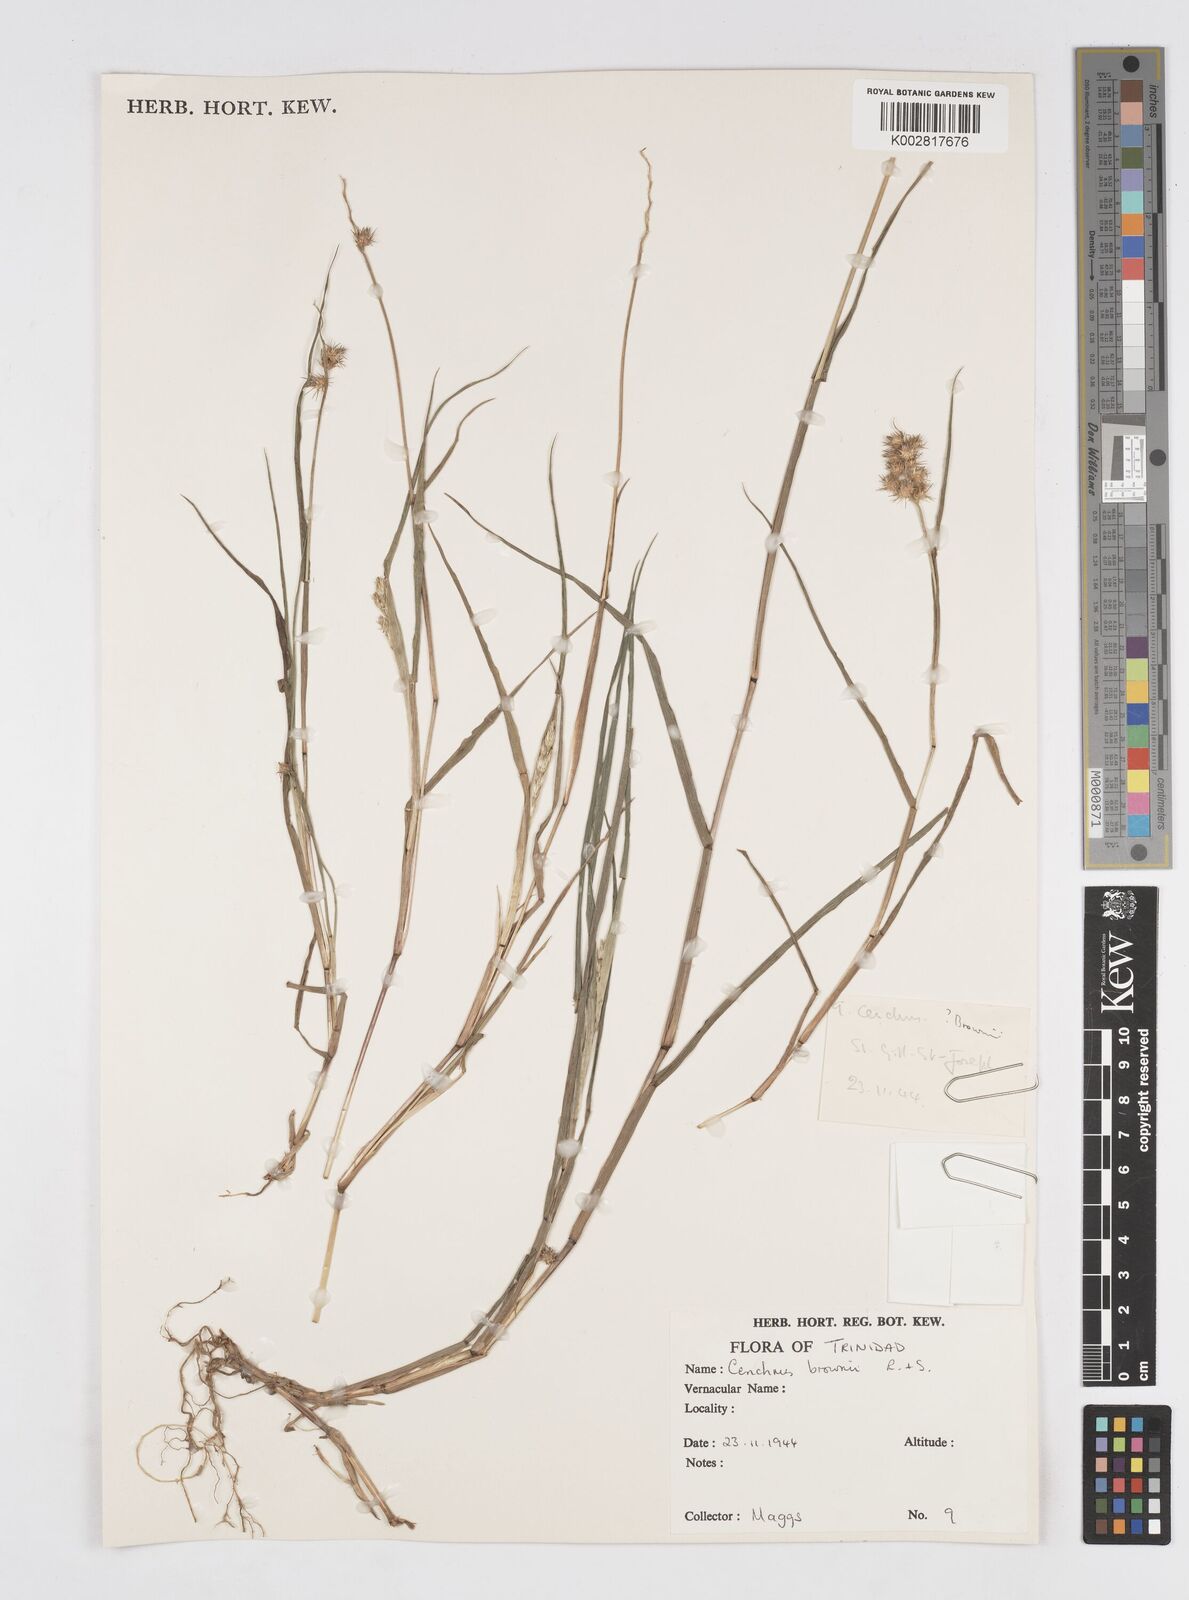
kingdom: Plantae
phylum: Tracheophyta
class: Liliopsida
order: Poales
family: Poaceae
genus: Cenchrus
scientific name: Cenchrus
